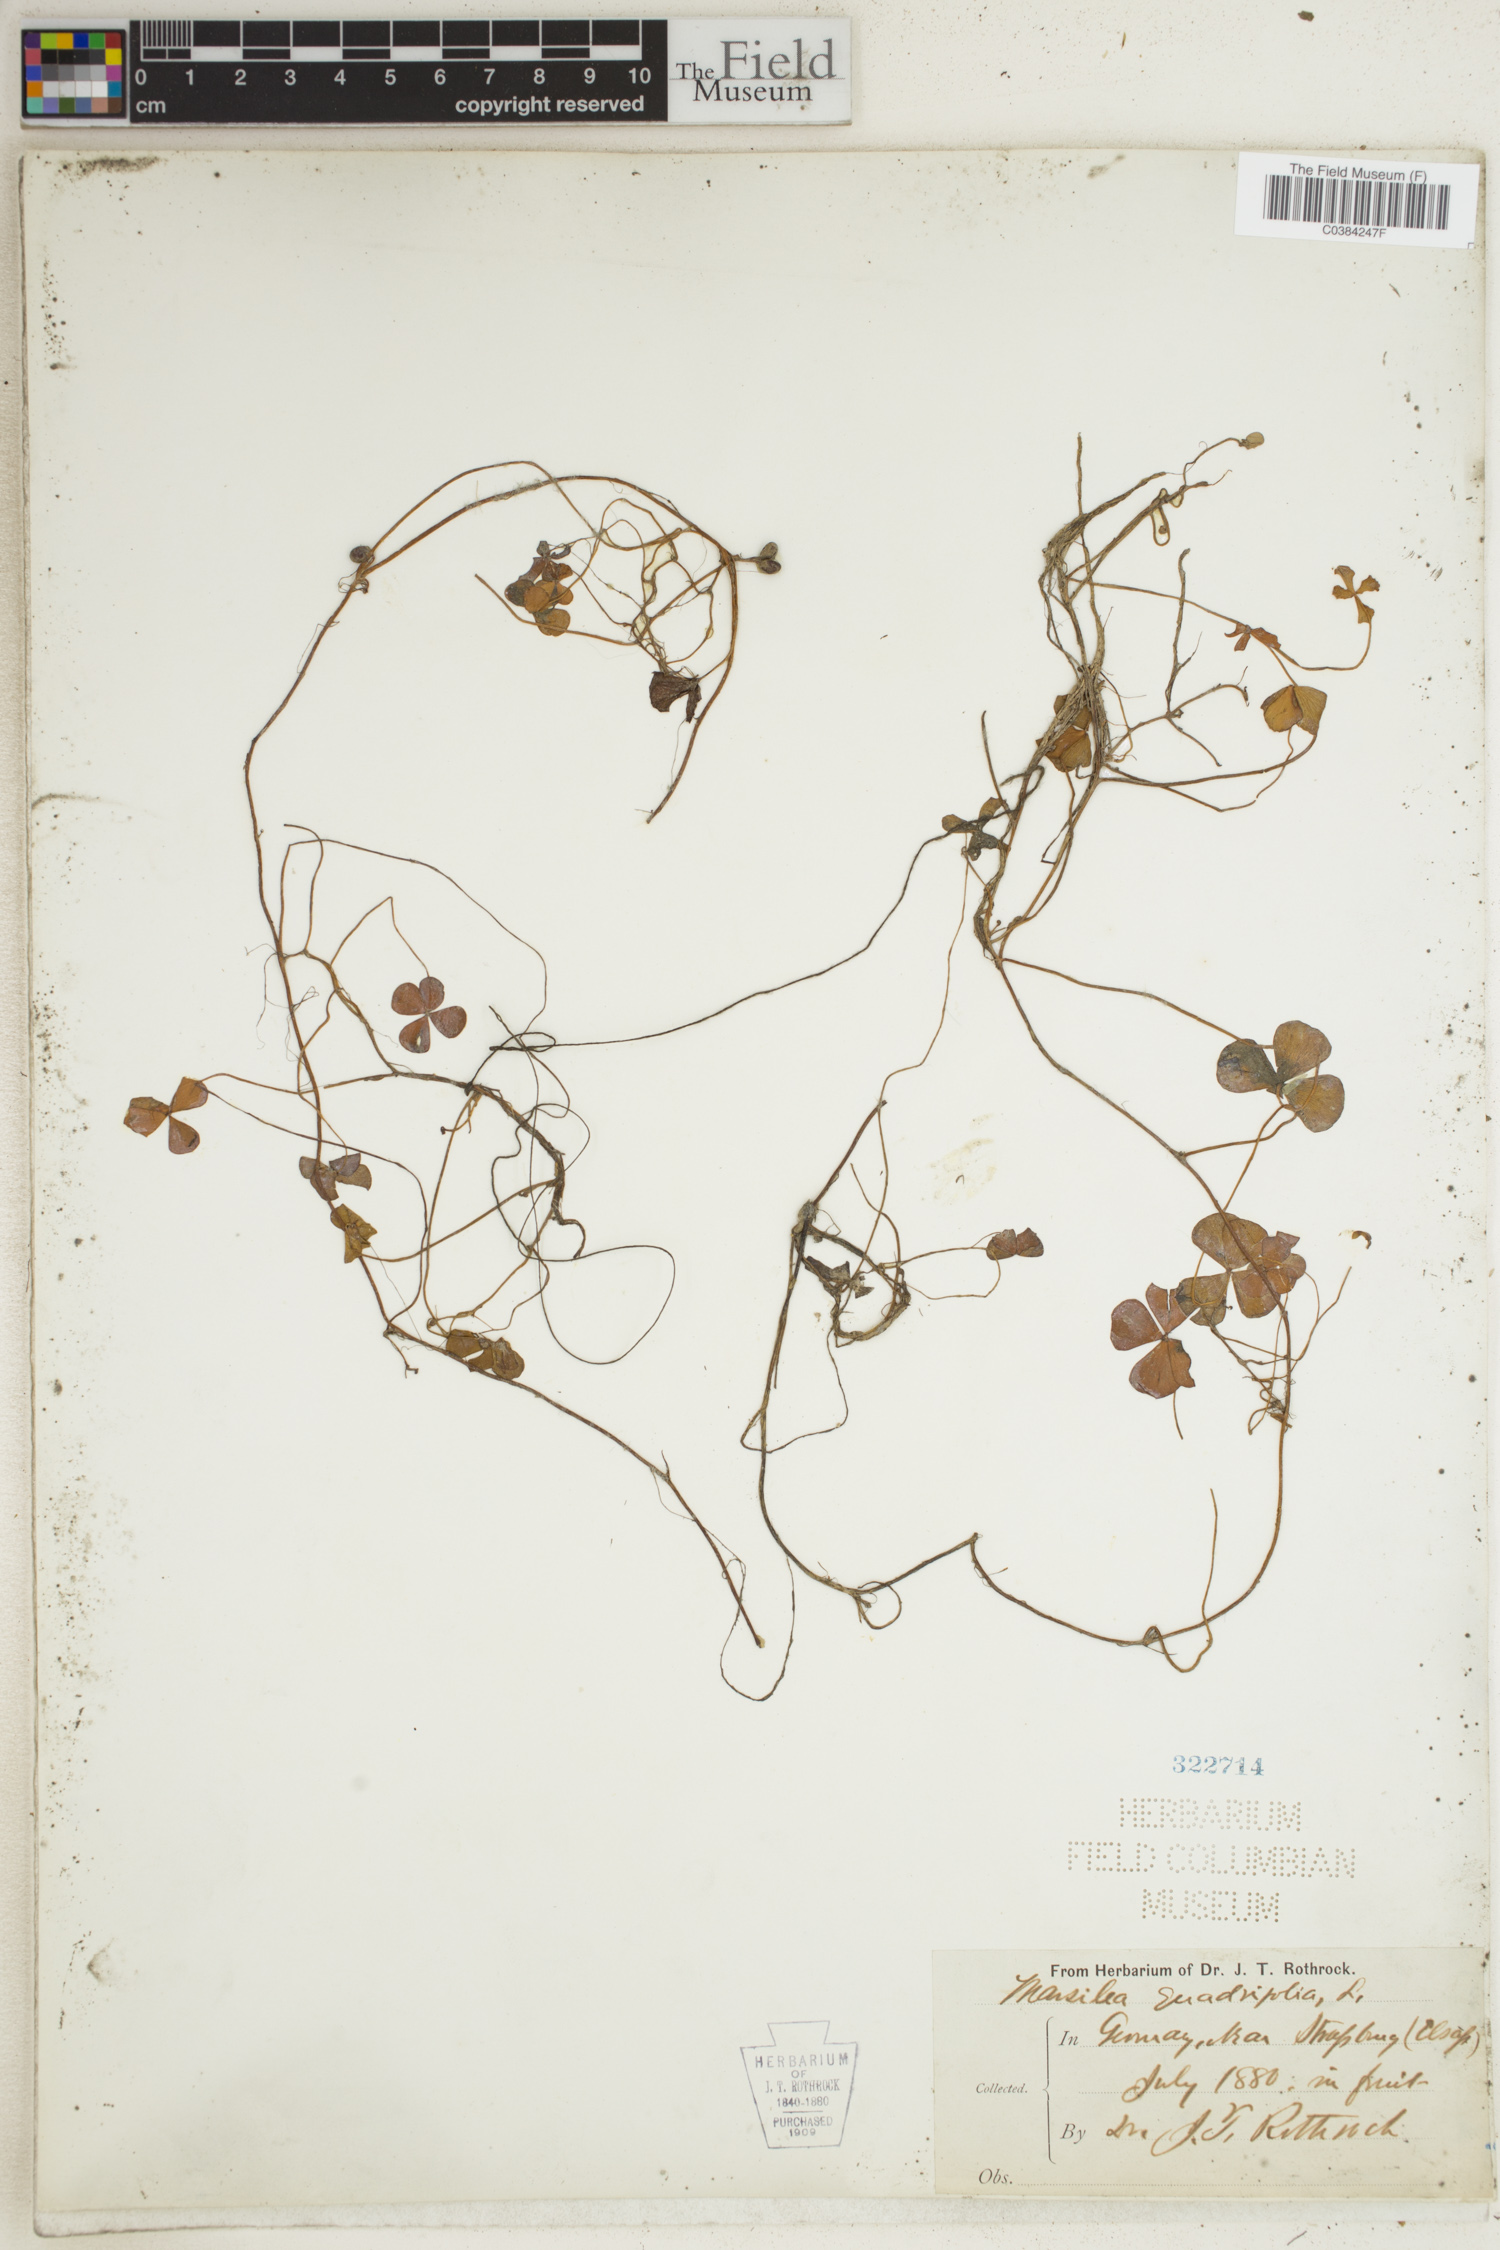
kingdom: Plantae
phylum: Tracheophyta
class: Polypodiopsida
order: Salviniales
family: Marsileaceae
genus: Marsilea
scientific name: Marsilea quadrifolia
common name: Water shamrock
